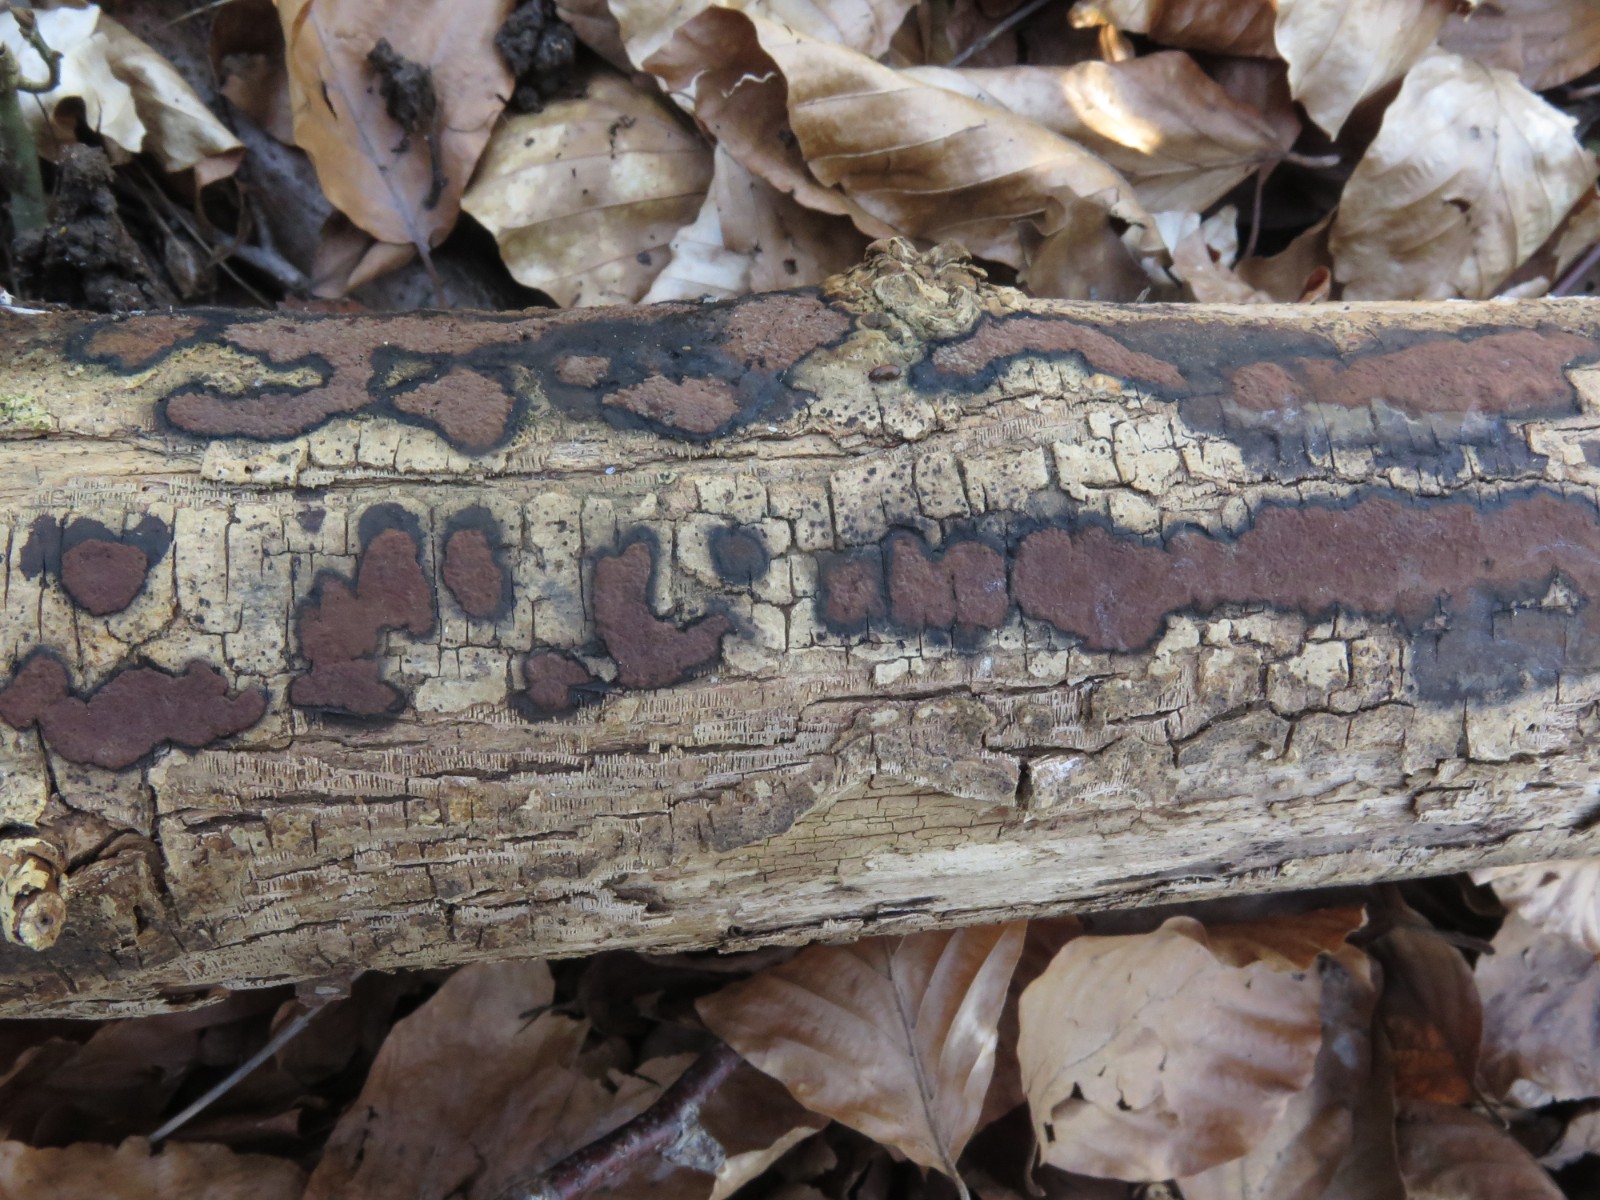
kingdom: Fungi
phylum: Ascomycota
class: Sordariomycetes
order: Xylariales
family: Hypoxylaceae
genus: Hypoxylon
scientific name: Hypoxylon petriniae
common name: nedsænket kulbær
